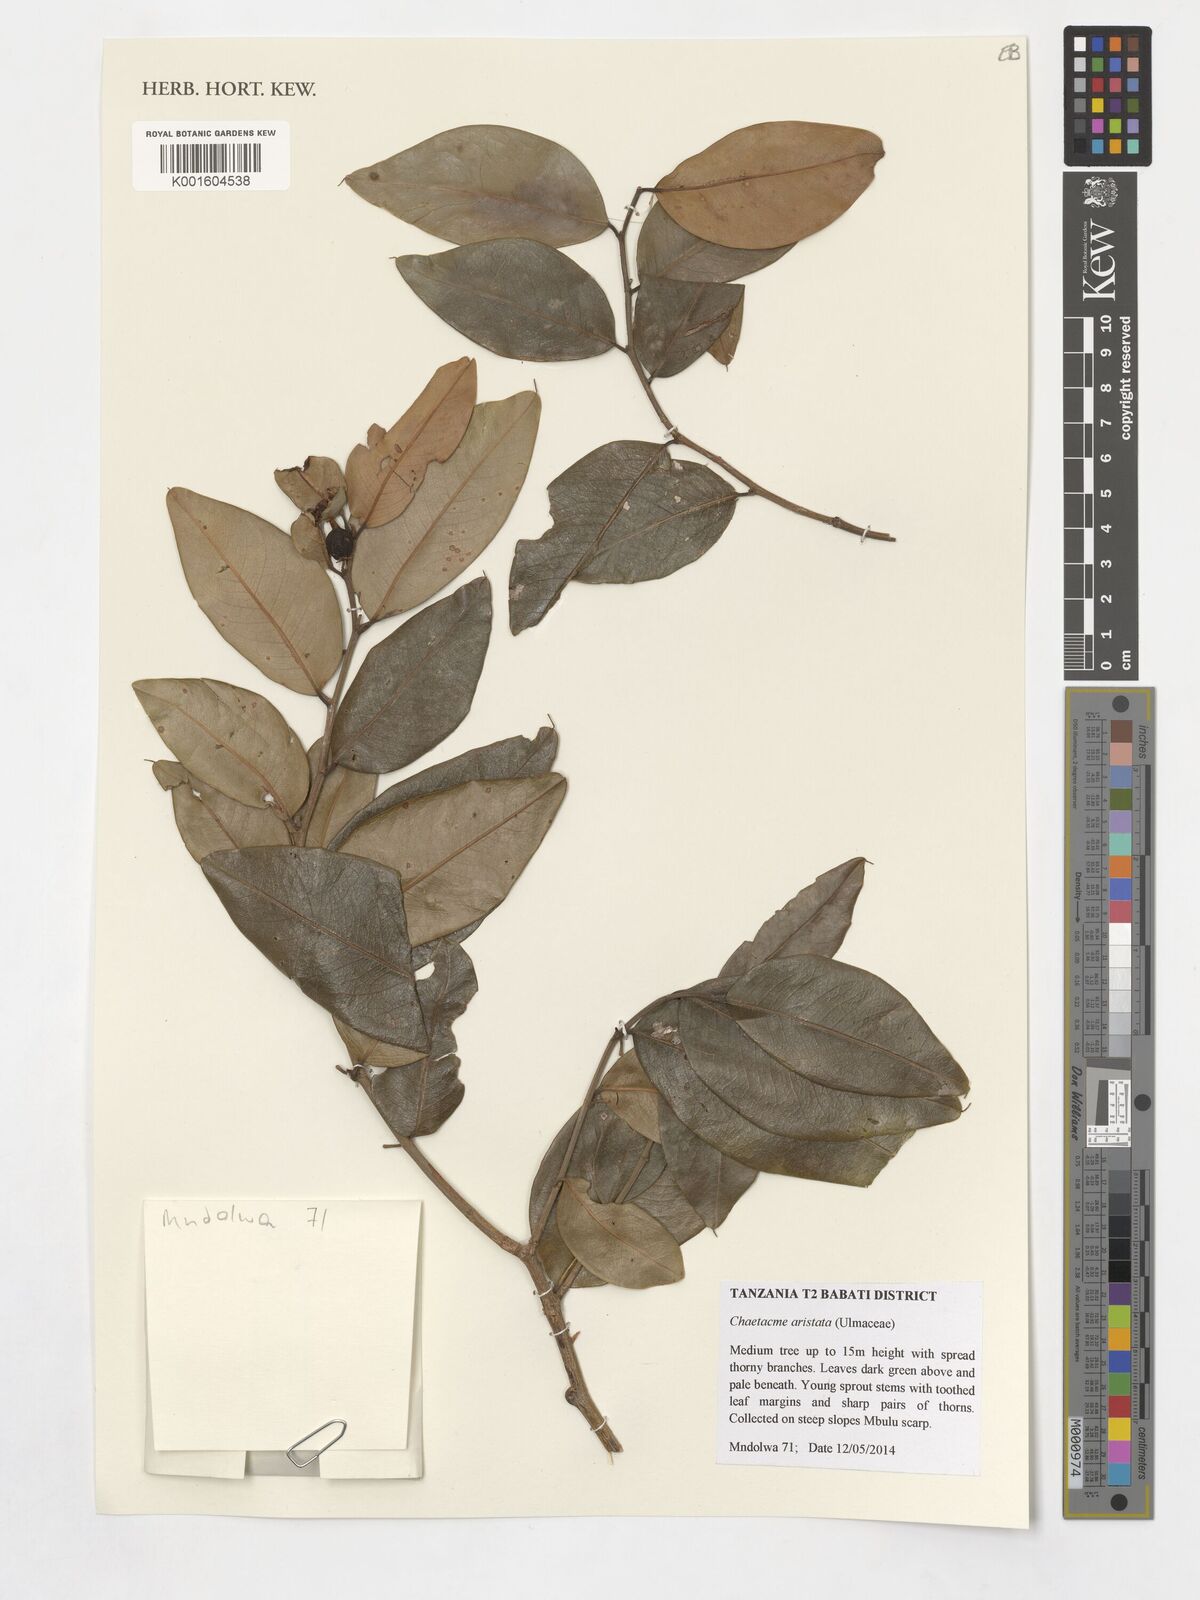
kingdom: Plantae
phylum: Tracheophyta
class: Magnoliopsida
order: Rosales
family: Cannabaceae
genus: Chaetachme
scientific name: Chaetachme aristata
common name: Thorny elm
